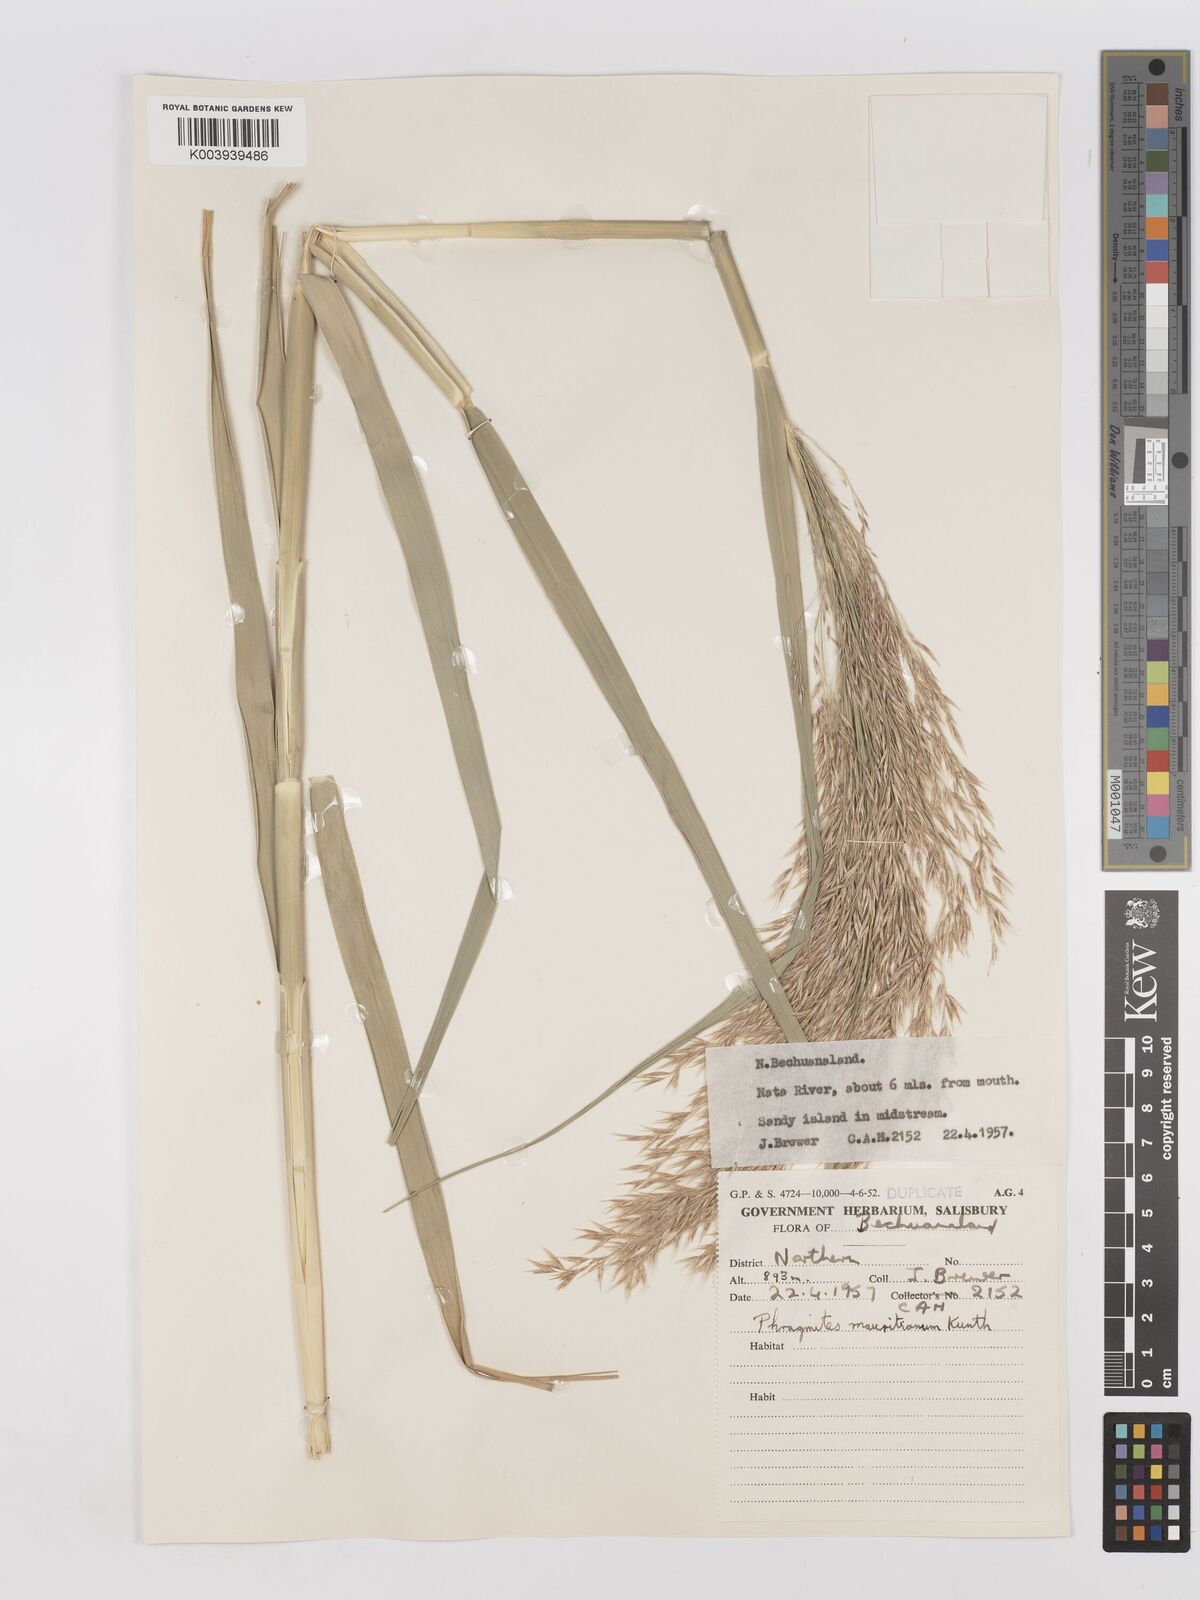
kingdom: Plantae
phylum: Tracheophyta
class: Liliopsida
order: Poales
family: Poaceae
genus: Phragmites
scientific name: Phragmites mauritianus
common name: Reed grass
